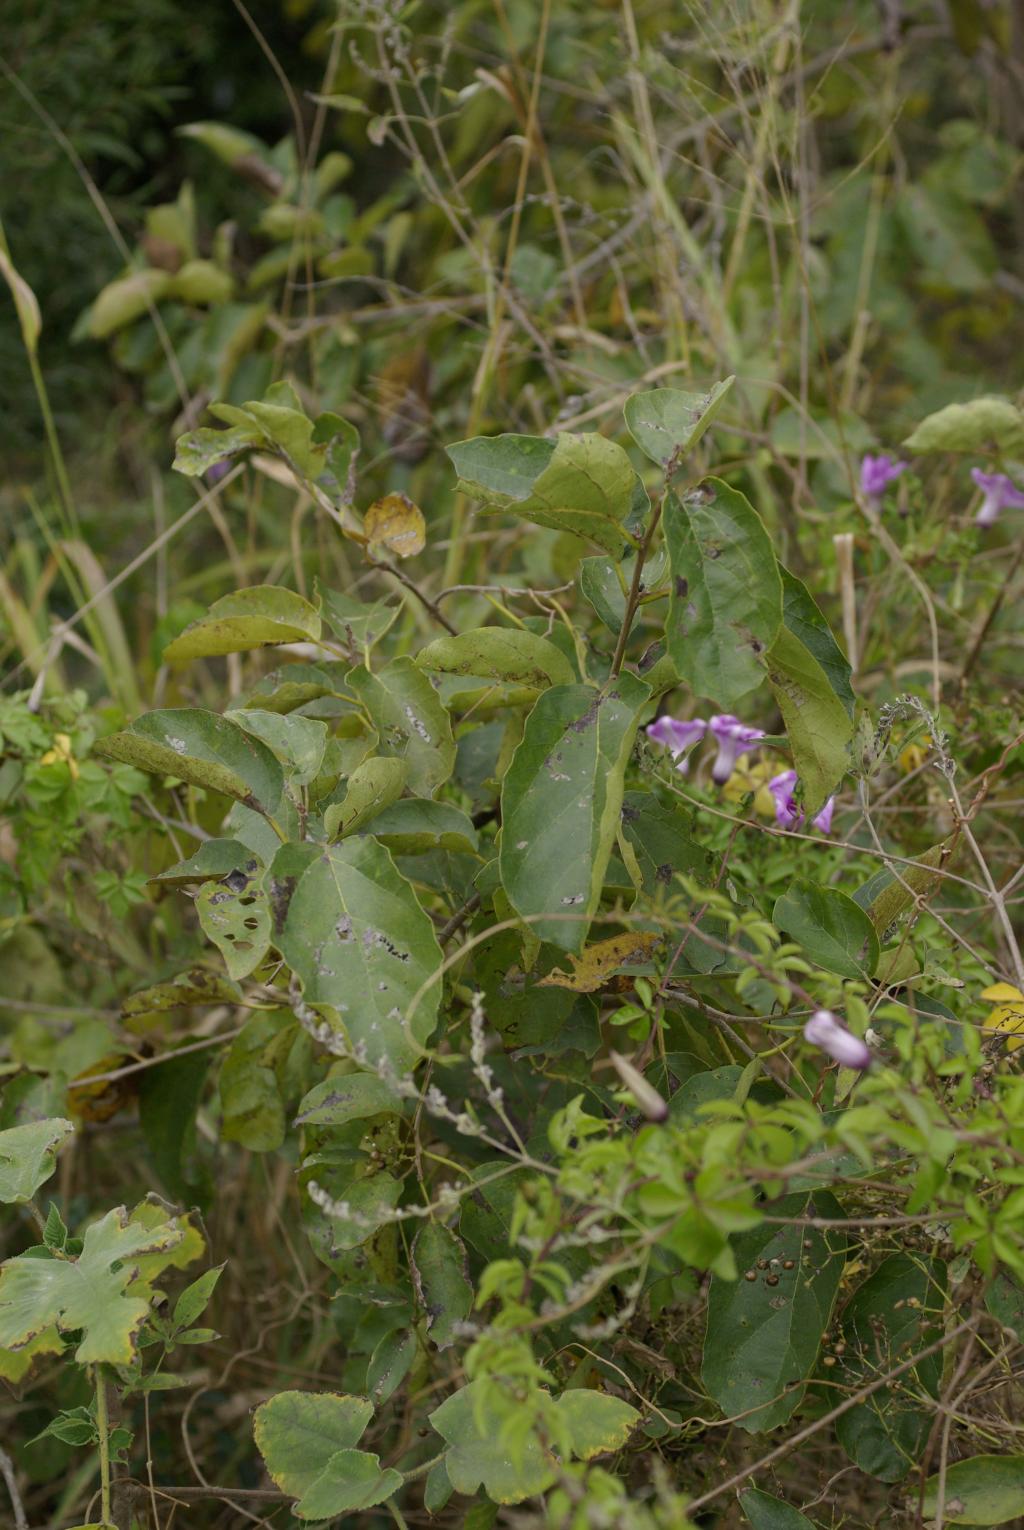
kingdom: Plantae
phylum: Tracheophyta
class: Magnoliopsida
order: Boraginales
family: Cordiaceae
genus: Cordia
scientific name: Cordia dichotoma
